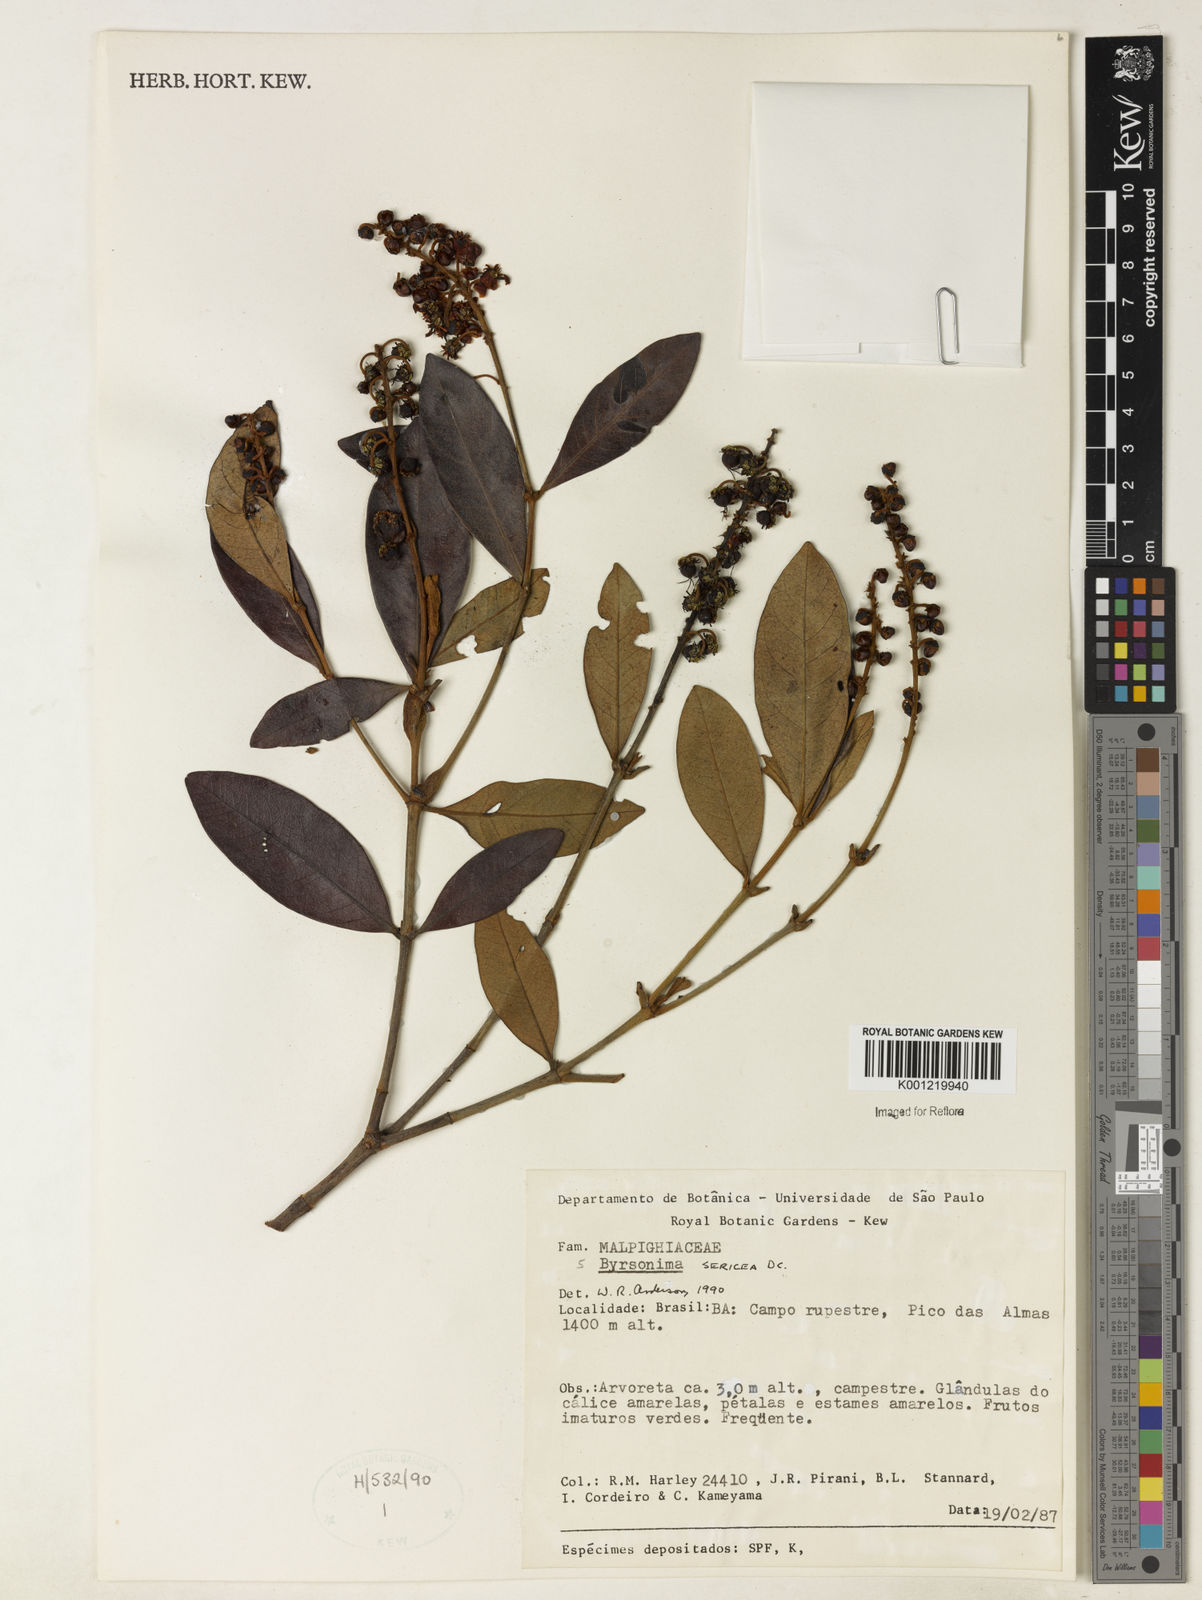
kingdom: Plantae
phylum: Tracheophyta
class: Magnoliopsida
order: Malpighiales
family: Malpighiaceae
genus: Byrsonima
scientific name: Byrsonima sericea
